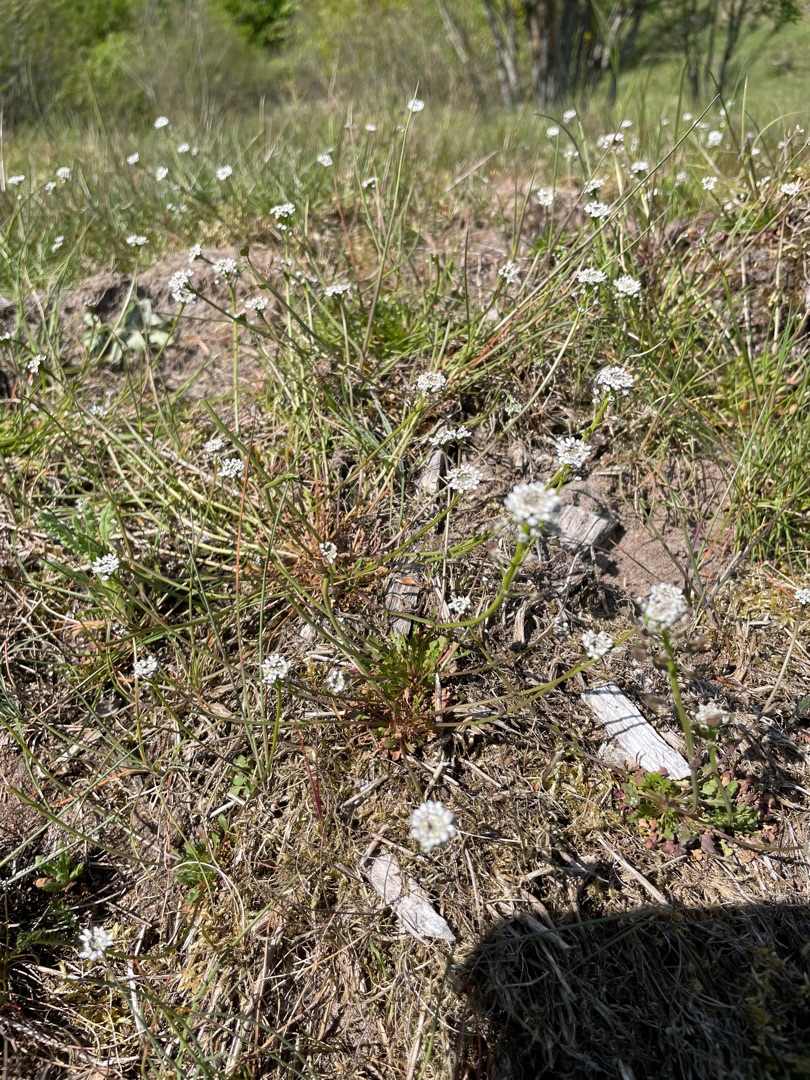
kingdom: Plantae
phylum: Tracheophyta
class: Magnoliopsida
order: Brassicales
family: Brassicaceae
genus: Teesdalia
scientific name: Teesdalia nudicaulis
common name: Flipkrave
